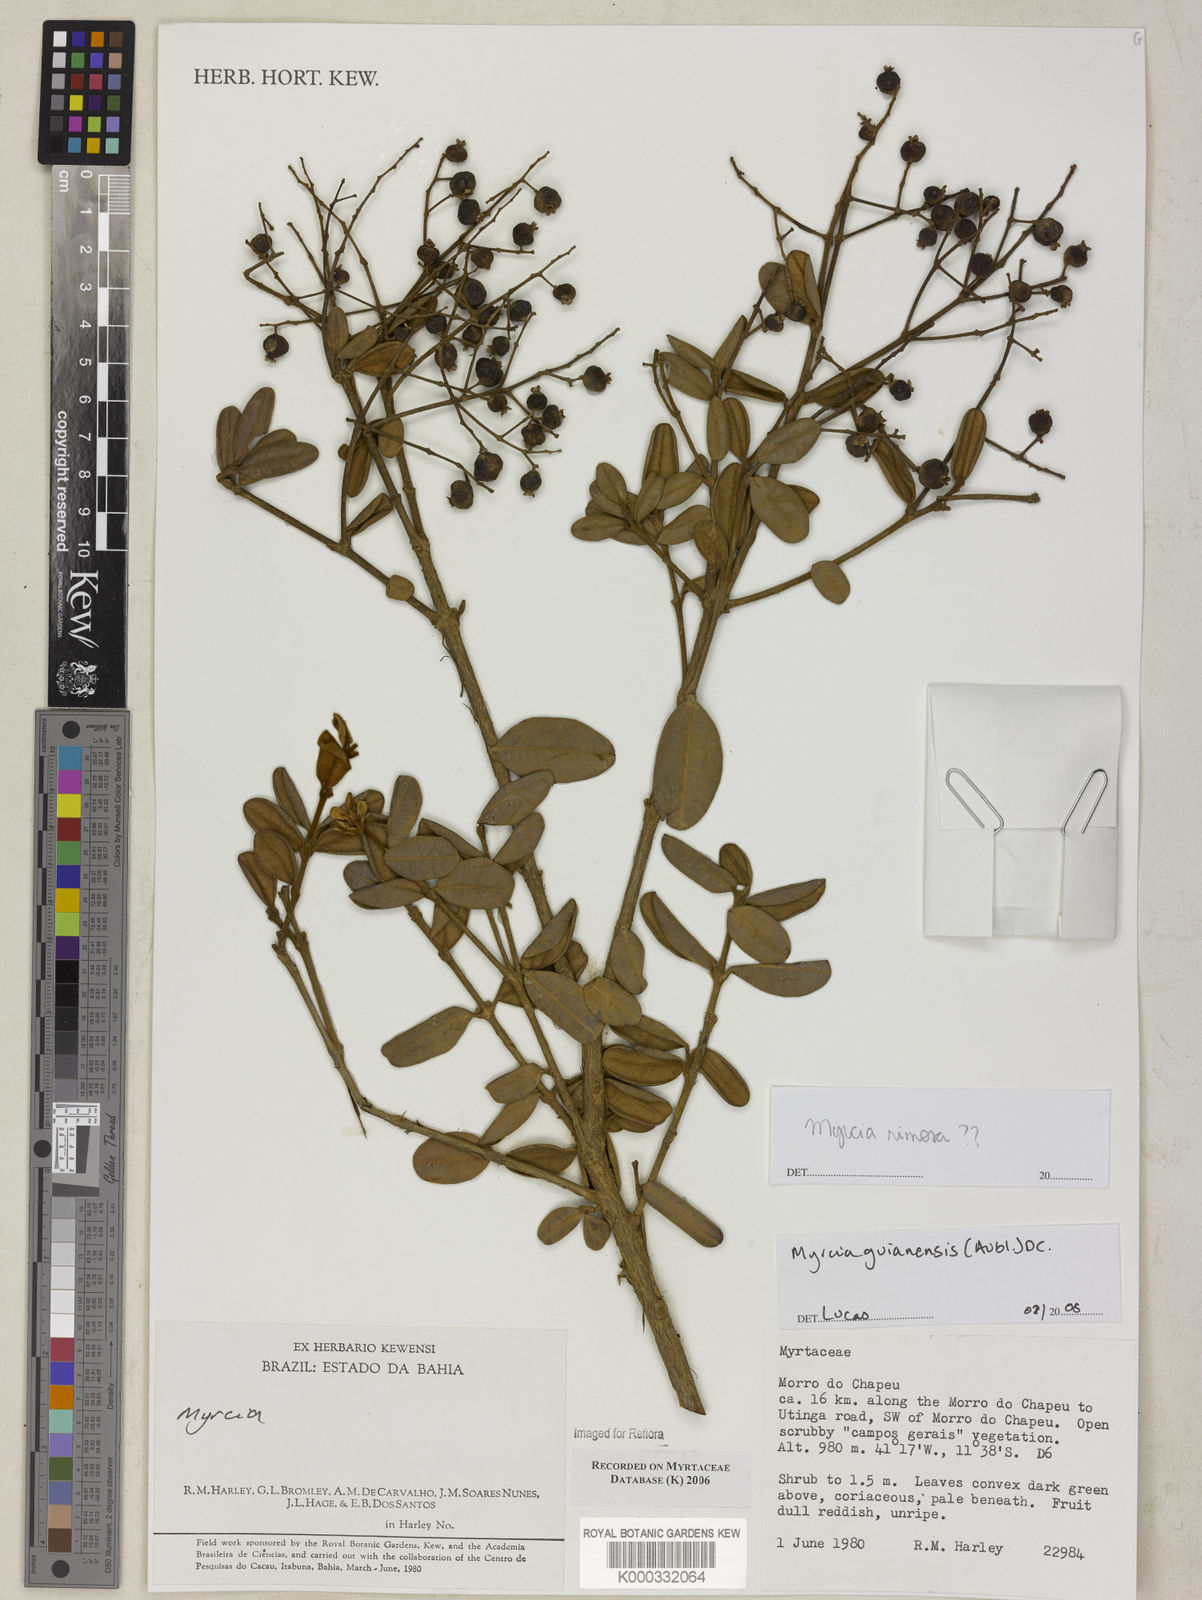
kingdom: Plantae
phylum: Tracheophyta
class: Magnoliopsida
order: Myrtales
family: Myrtaceae
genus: Myrcia
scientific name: Myrcia
